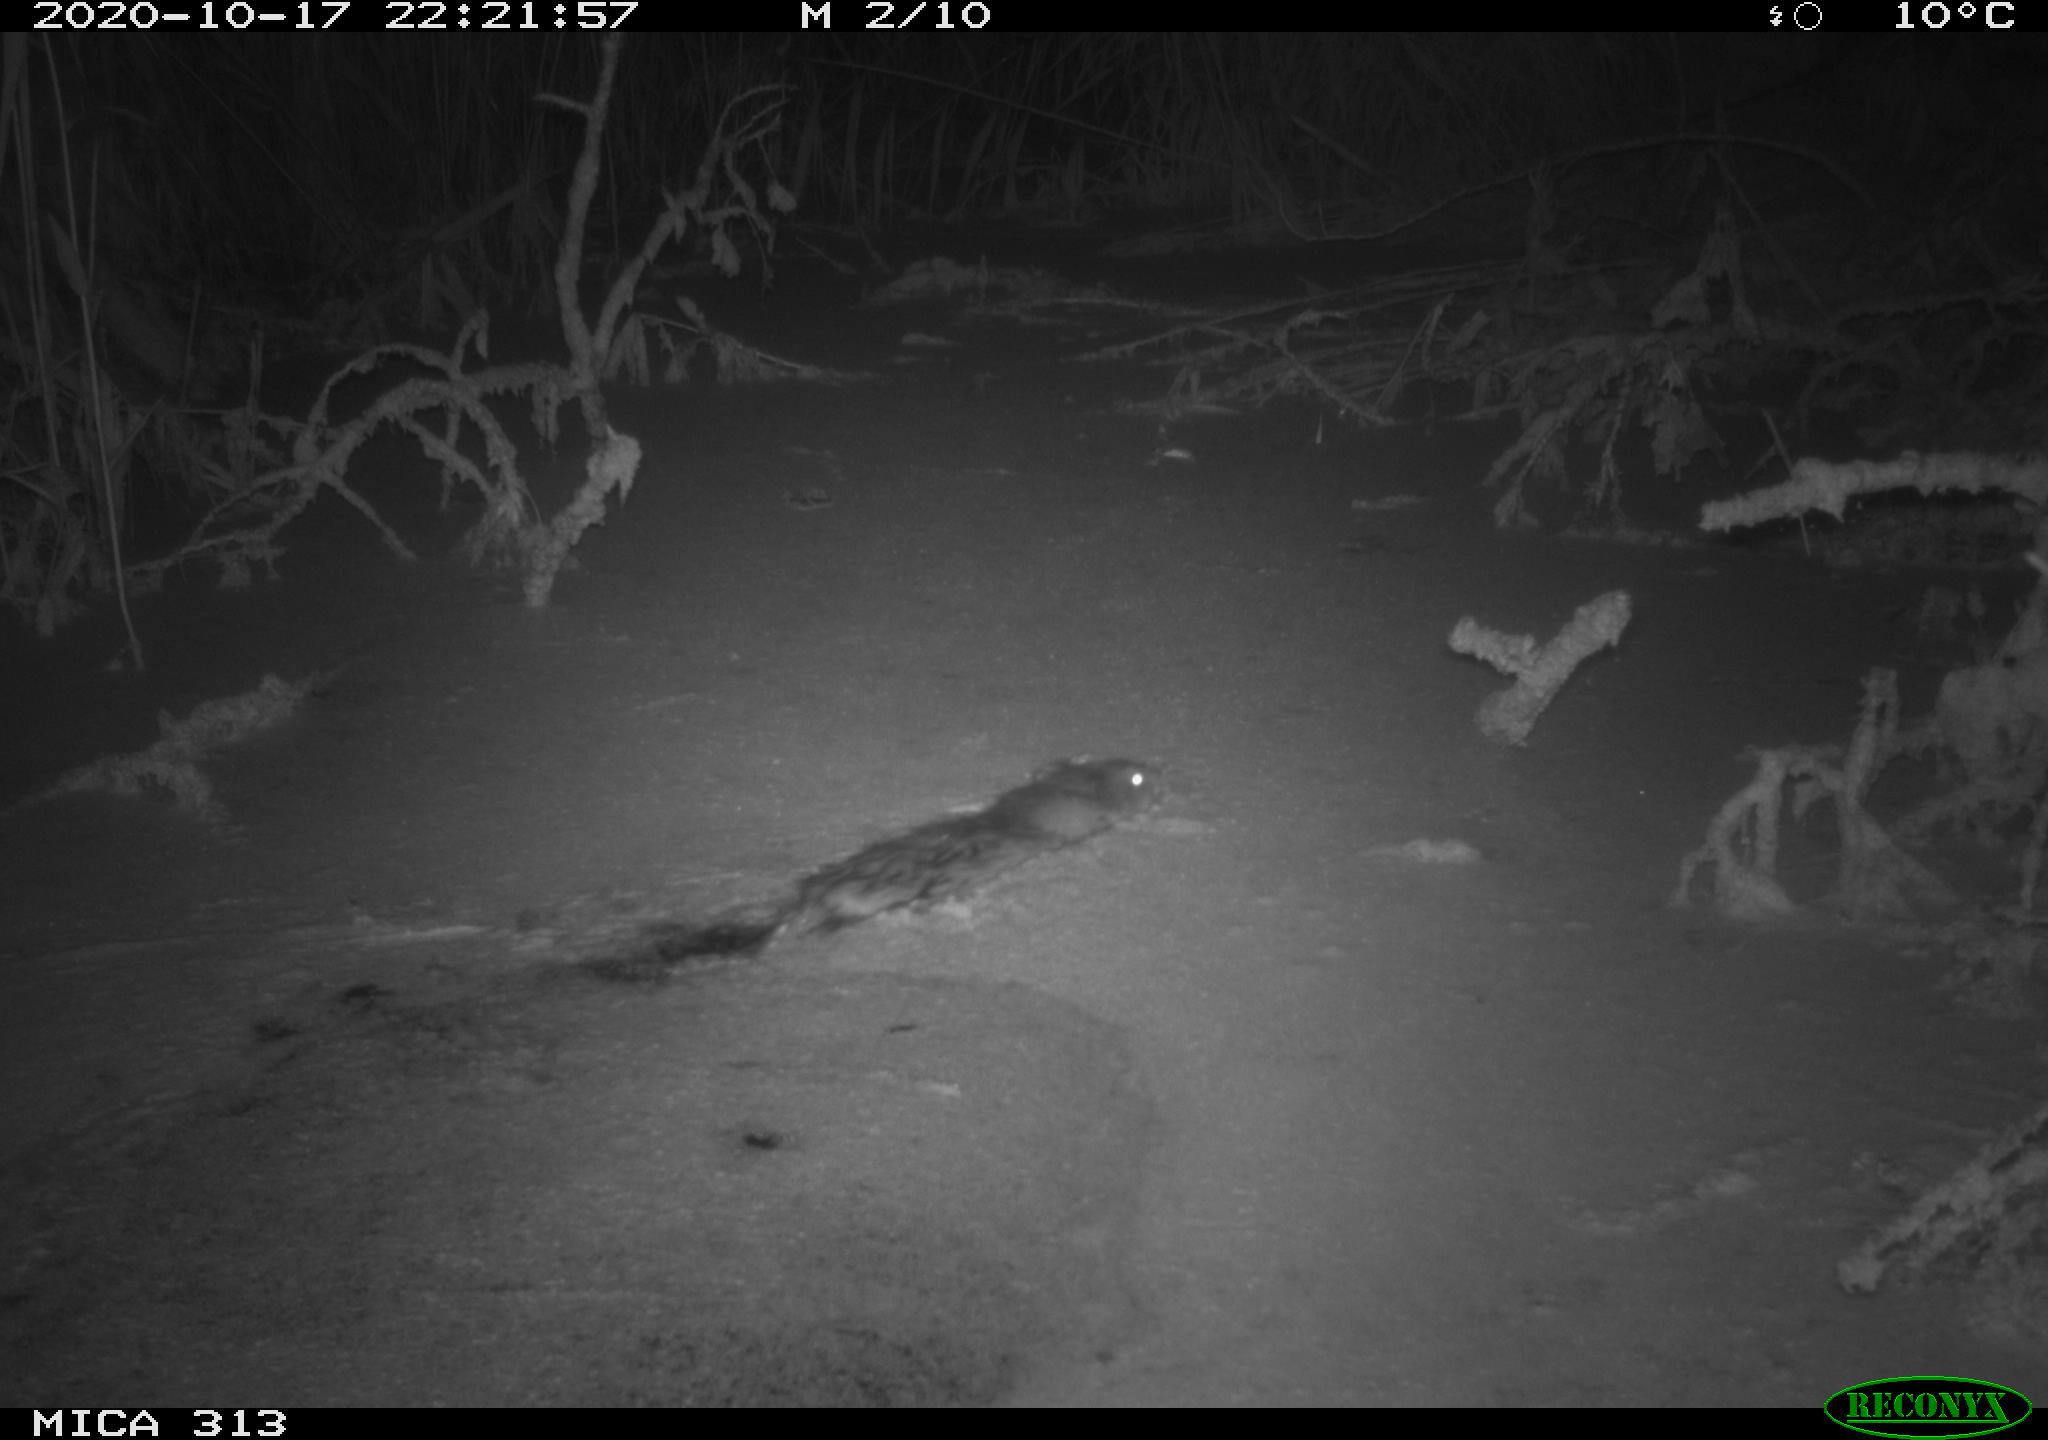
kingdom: Animalia
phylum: Chordata
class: Mammalia
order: Rodentia
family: Cricetidae
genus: Ondatra
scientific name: Ondatra zibethicus
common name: Muskrat
